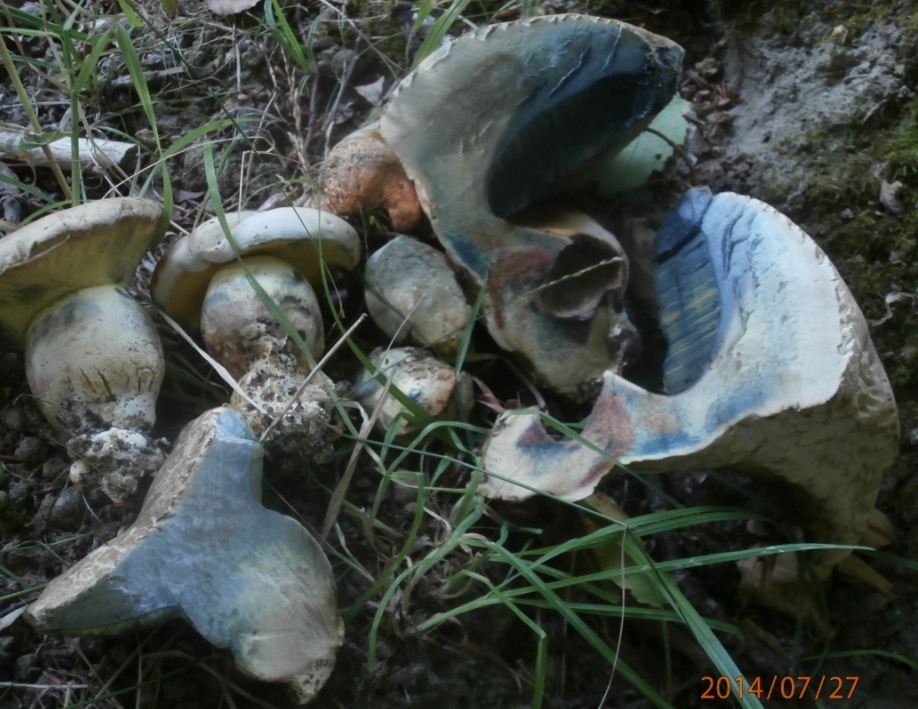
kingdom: Fungi
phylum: Basidiomycota
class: Agaricomycetes
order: Boletales
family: Boletaceae
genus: Caloboletus
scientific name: Caloboletus radicans
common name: rod-rørhat
